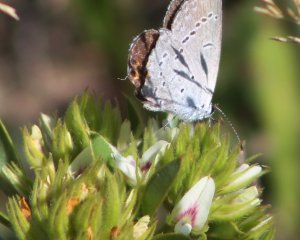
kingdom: Animalia
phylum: Arthropoda
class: Insecta
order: Lepidoptera
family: Lycaenidae
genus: Elkalyce
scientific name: Elkalyce comyntas
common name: Eastern Tailed-Blue
